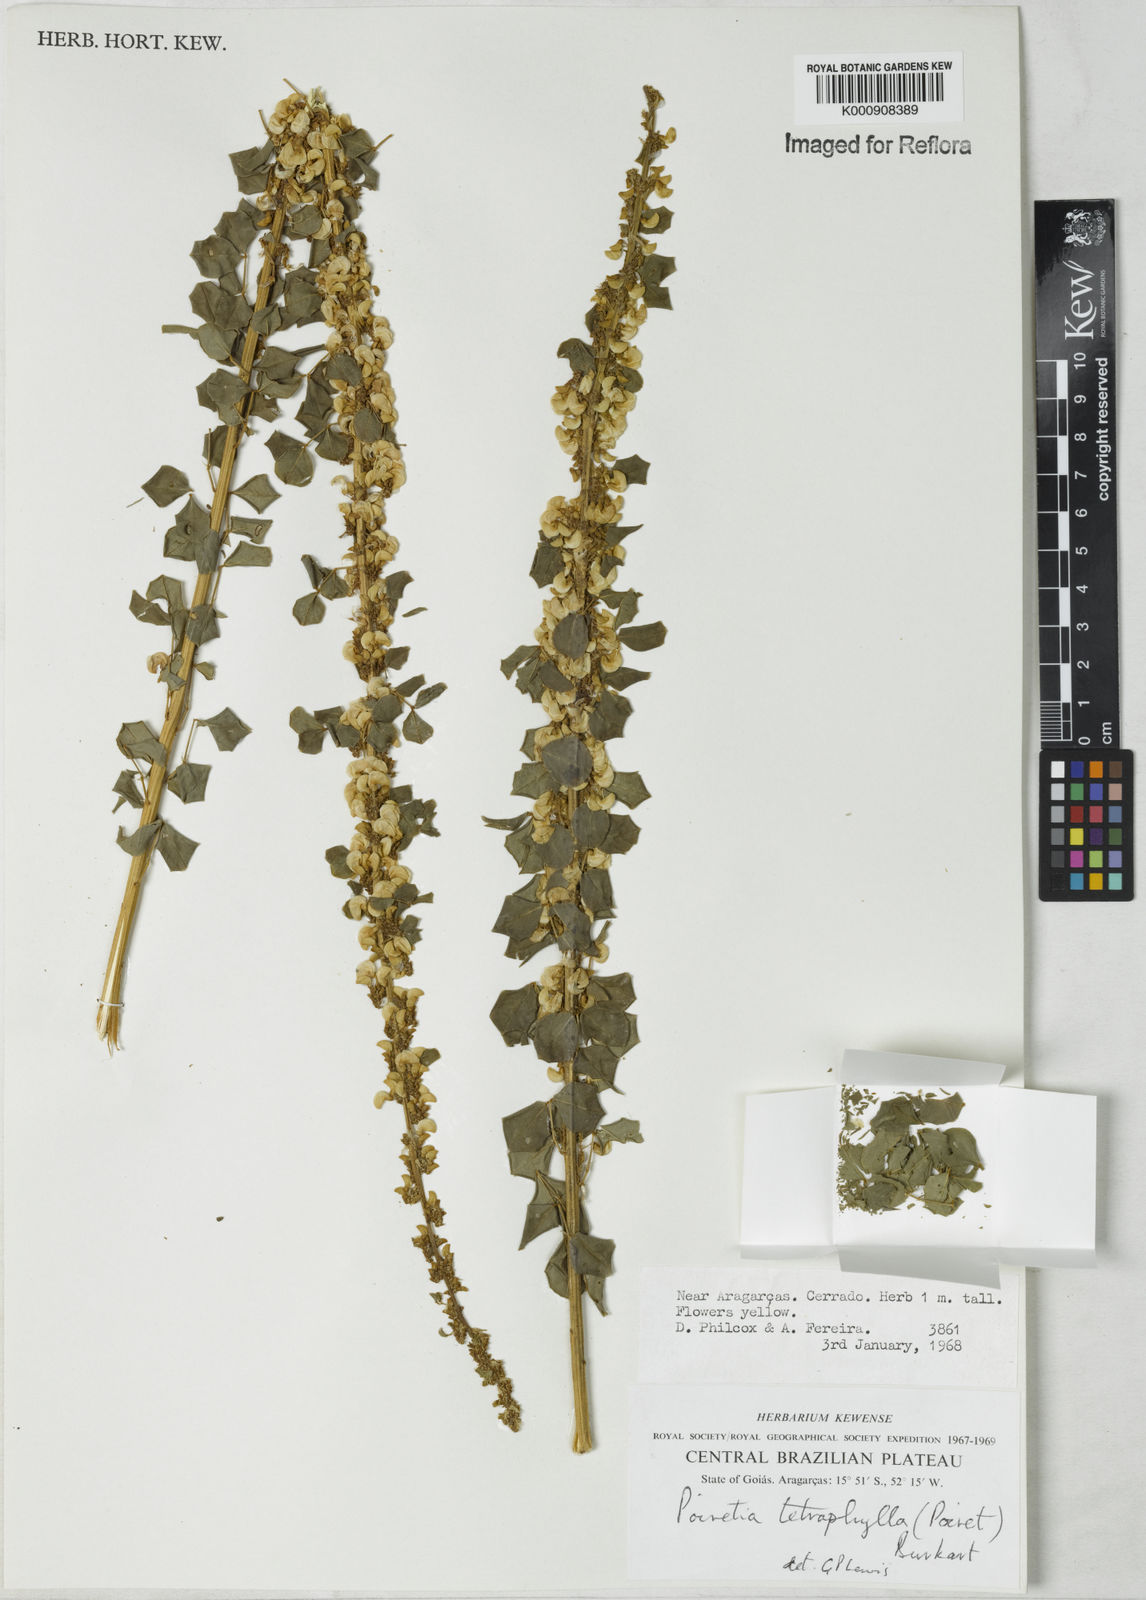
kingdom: Plantae
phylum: Tracheophyta
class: Magnoliopsida
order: Fabales
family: Fabaceae
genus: Poiretia
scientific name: Poiretia tetraphylla
